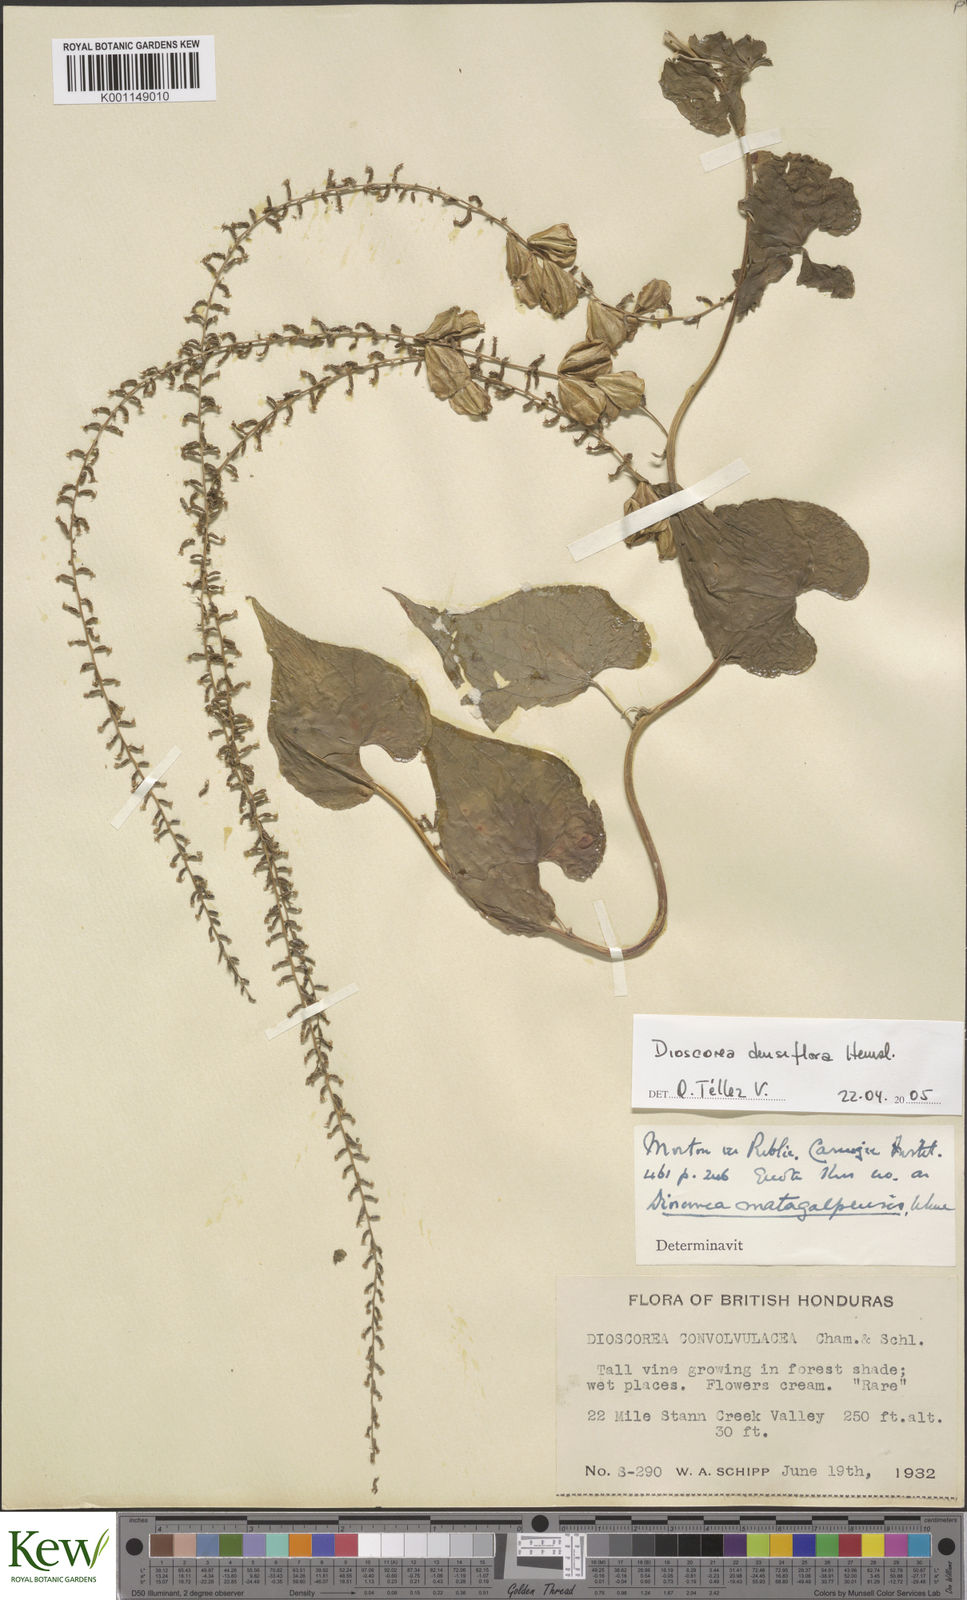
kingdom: Plantae
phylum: Tracheophyta
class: Liliopsida
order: Dioscoreales
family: Dioscoreaceae
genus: Dioscorea
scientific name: Dioscorea densiflora
